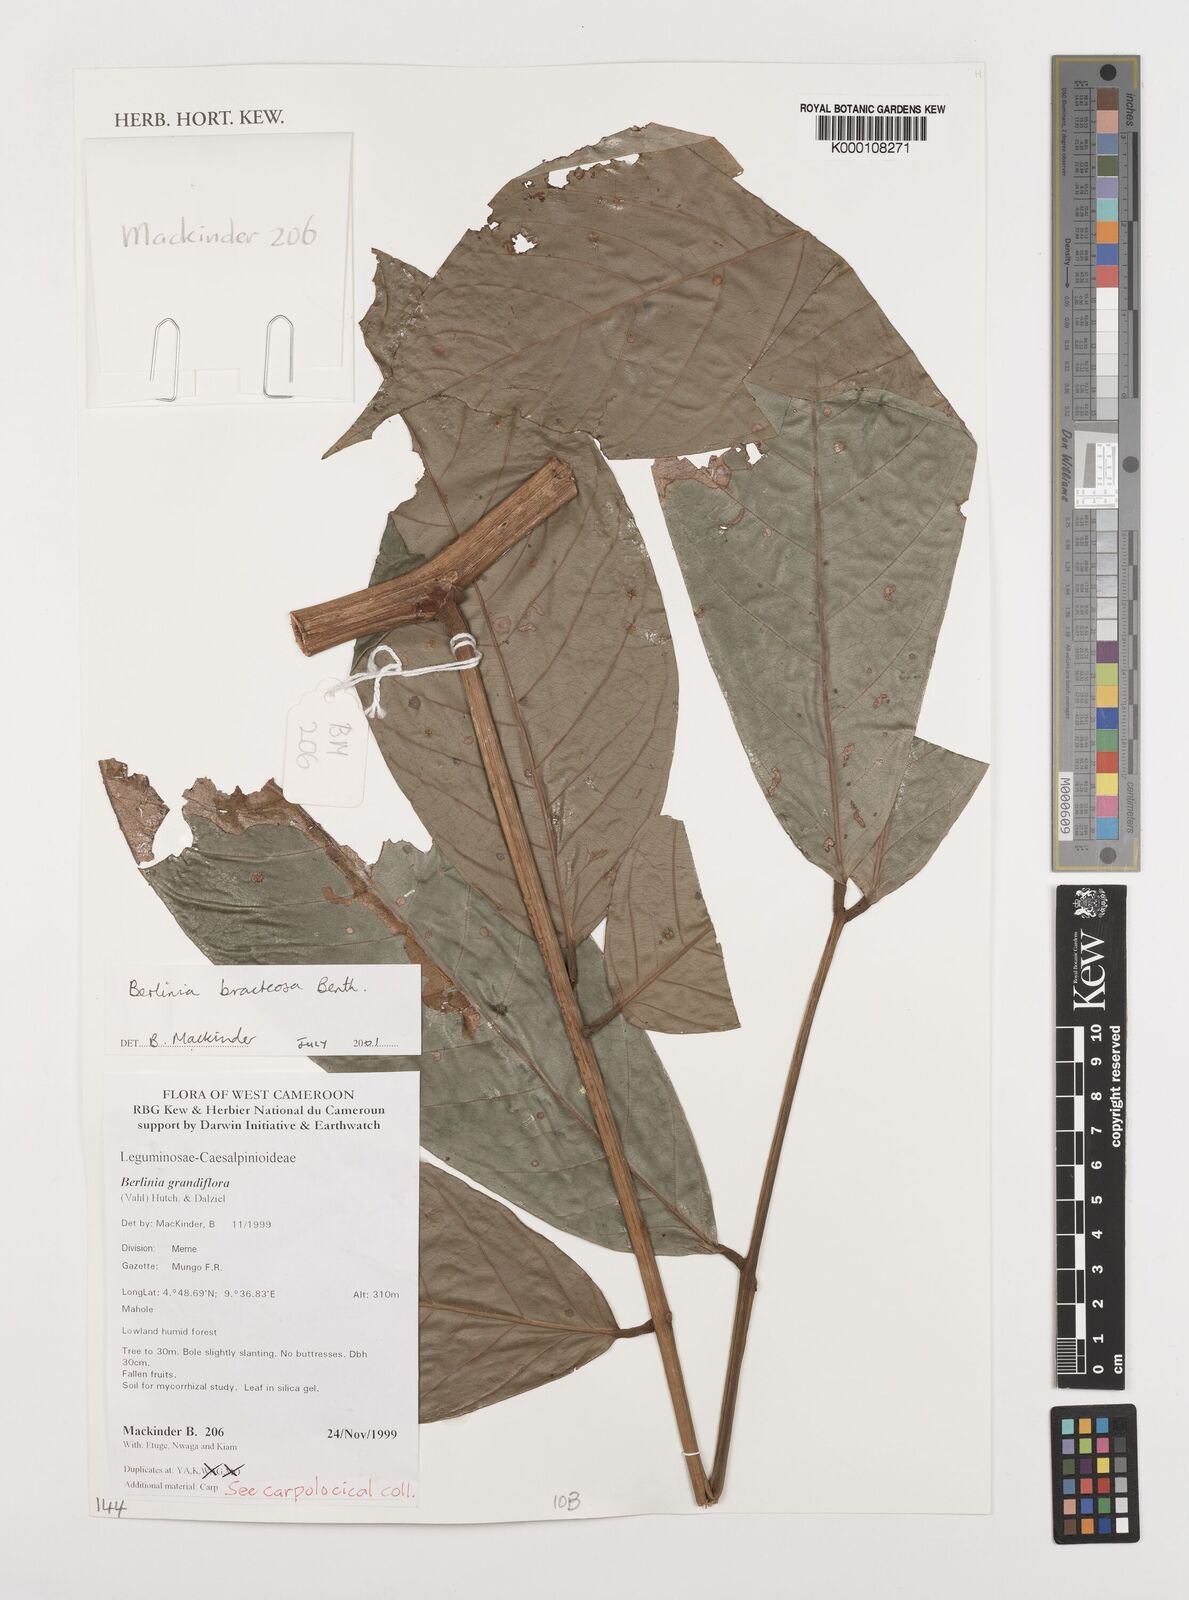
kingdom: Plantae
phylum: Tracheophyta
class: Magnoliopsida
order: Fabales
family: Fabaceae
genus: Berlinia
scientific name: Berlinia bracteosa
